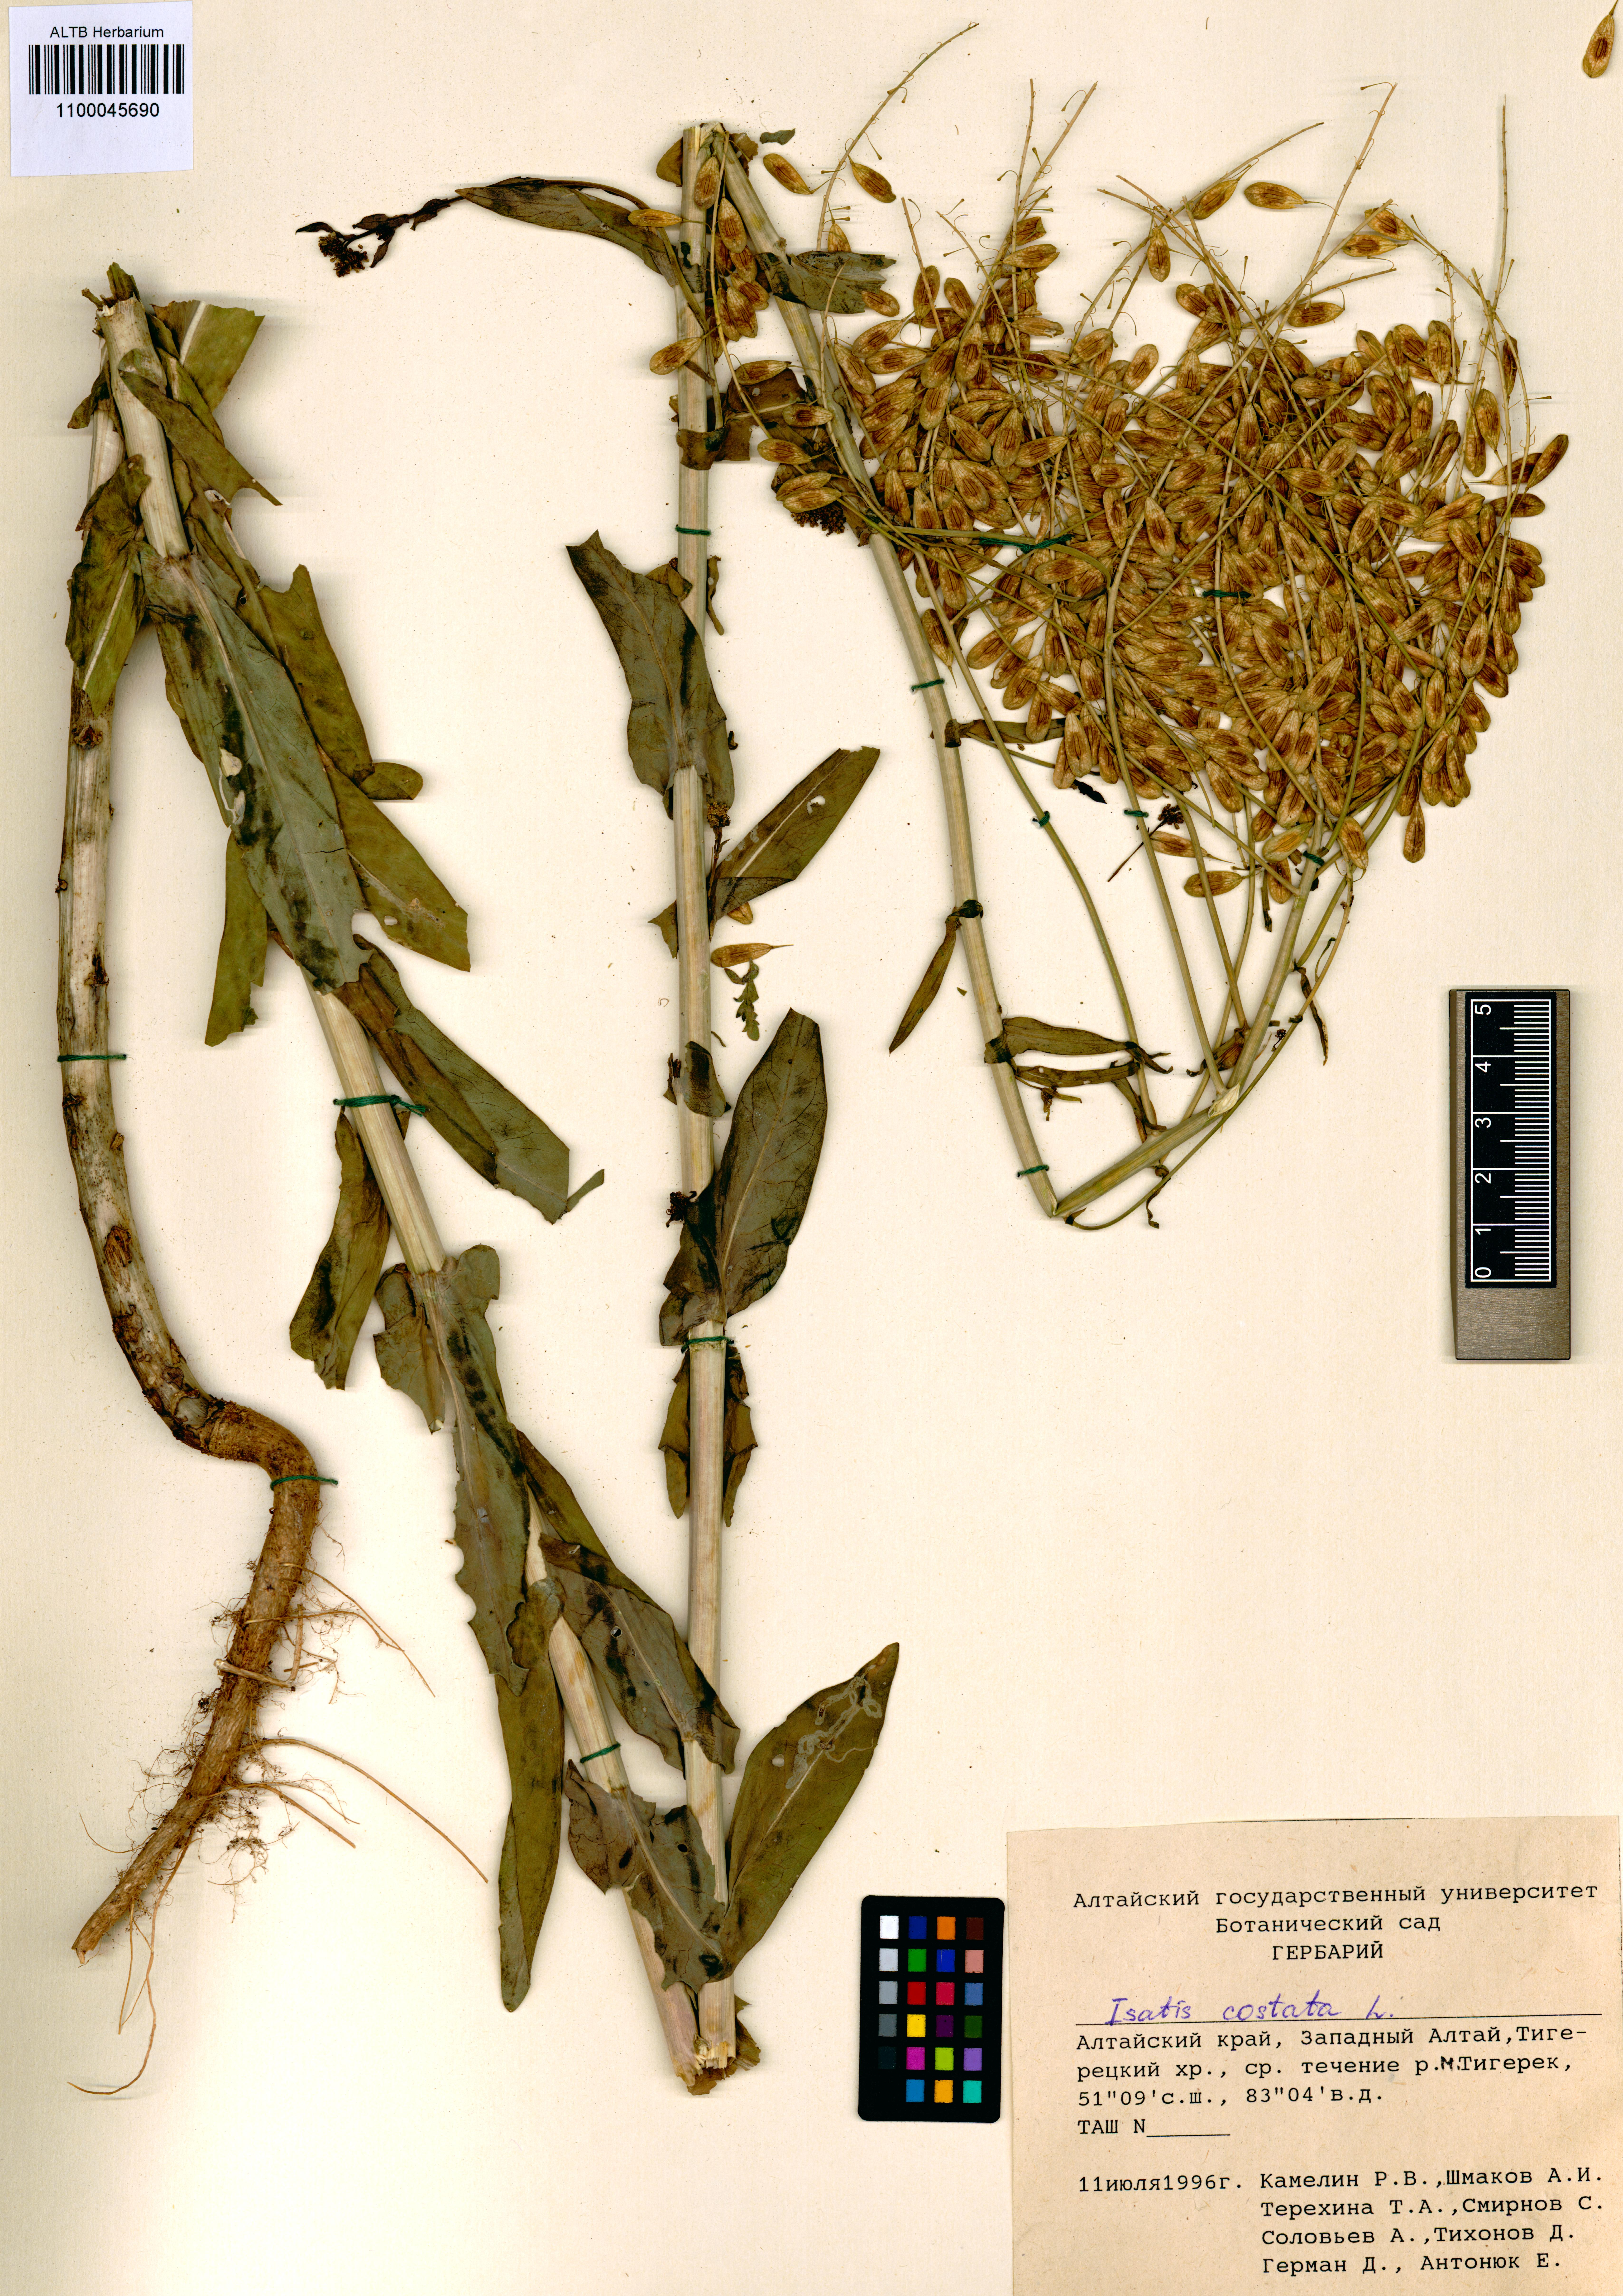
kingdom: Plantae
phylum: Tracheophyta
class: Magnoliopsida
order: Brassicales
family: Brassicaceae
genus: Isatis
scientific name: Isatis costata
